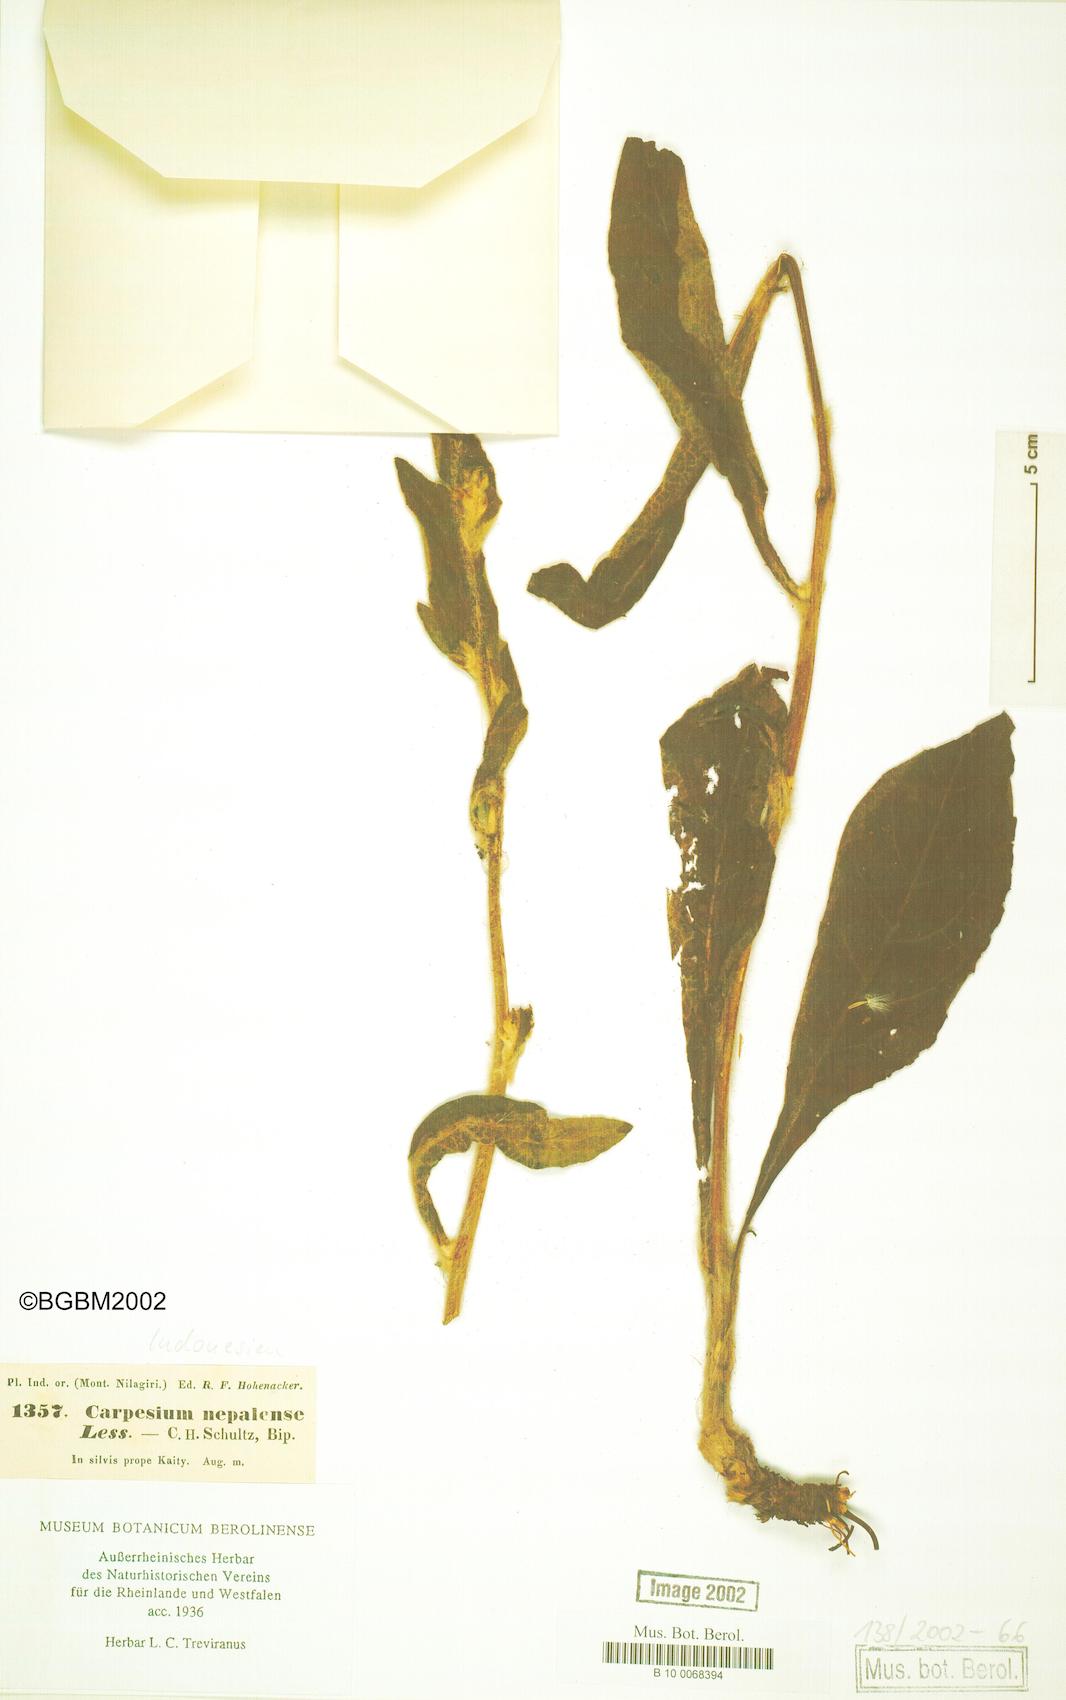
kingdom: Plantae
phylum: Tracheophyta
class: Magnoliopsida
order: Asterales
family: Asteraceae
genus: Carpesium
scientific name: Carpesium cernuum
